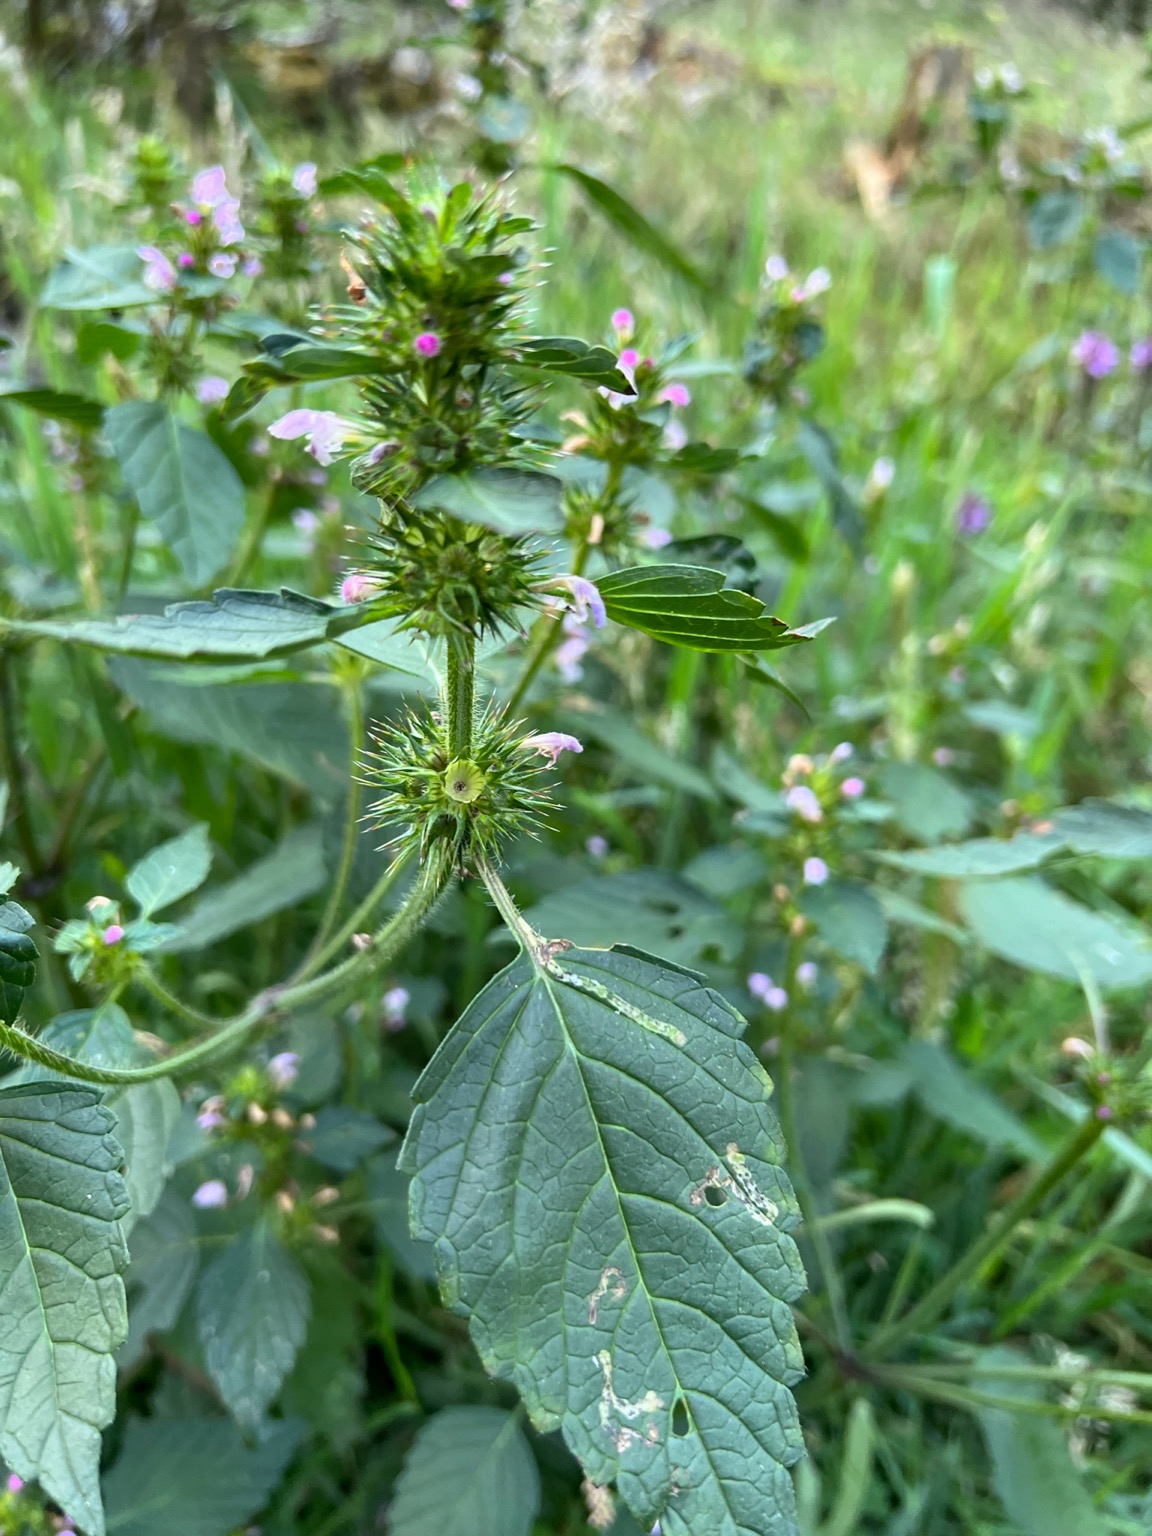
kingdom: Plantae
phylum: Tracheophyta
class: Magnoliopsida
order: Lamiales
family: Lamiaceae
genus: Galeopsis
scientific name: Galeopsis
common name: Hanekroslægten
